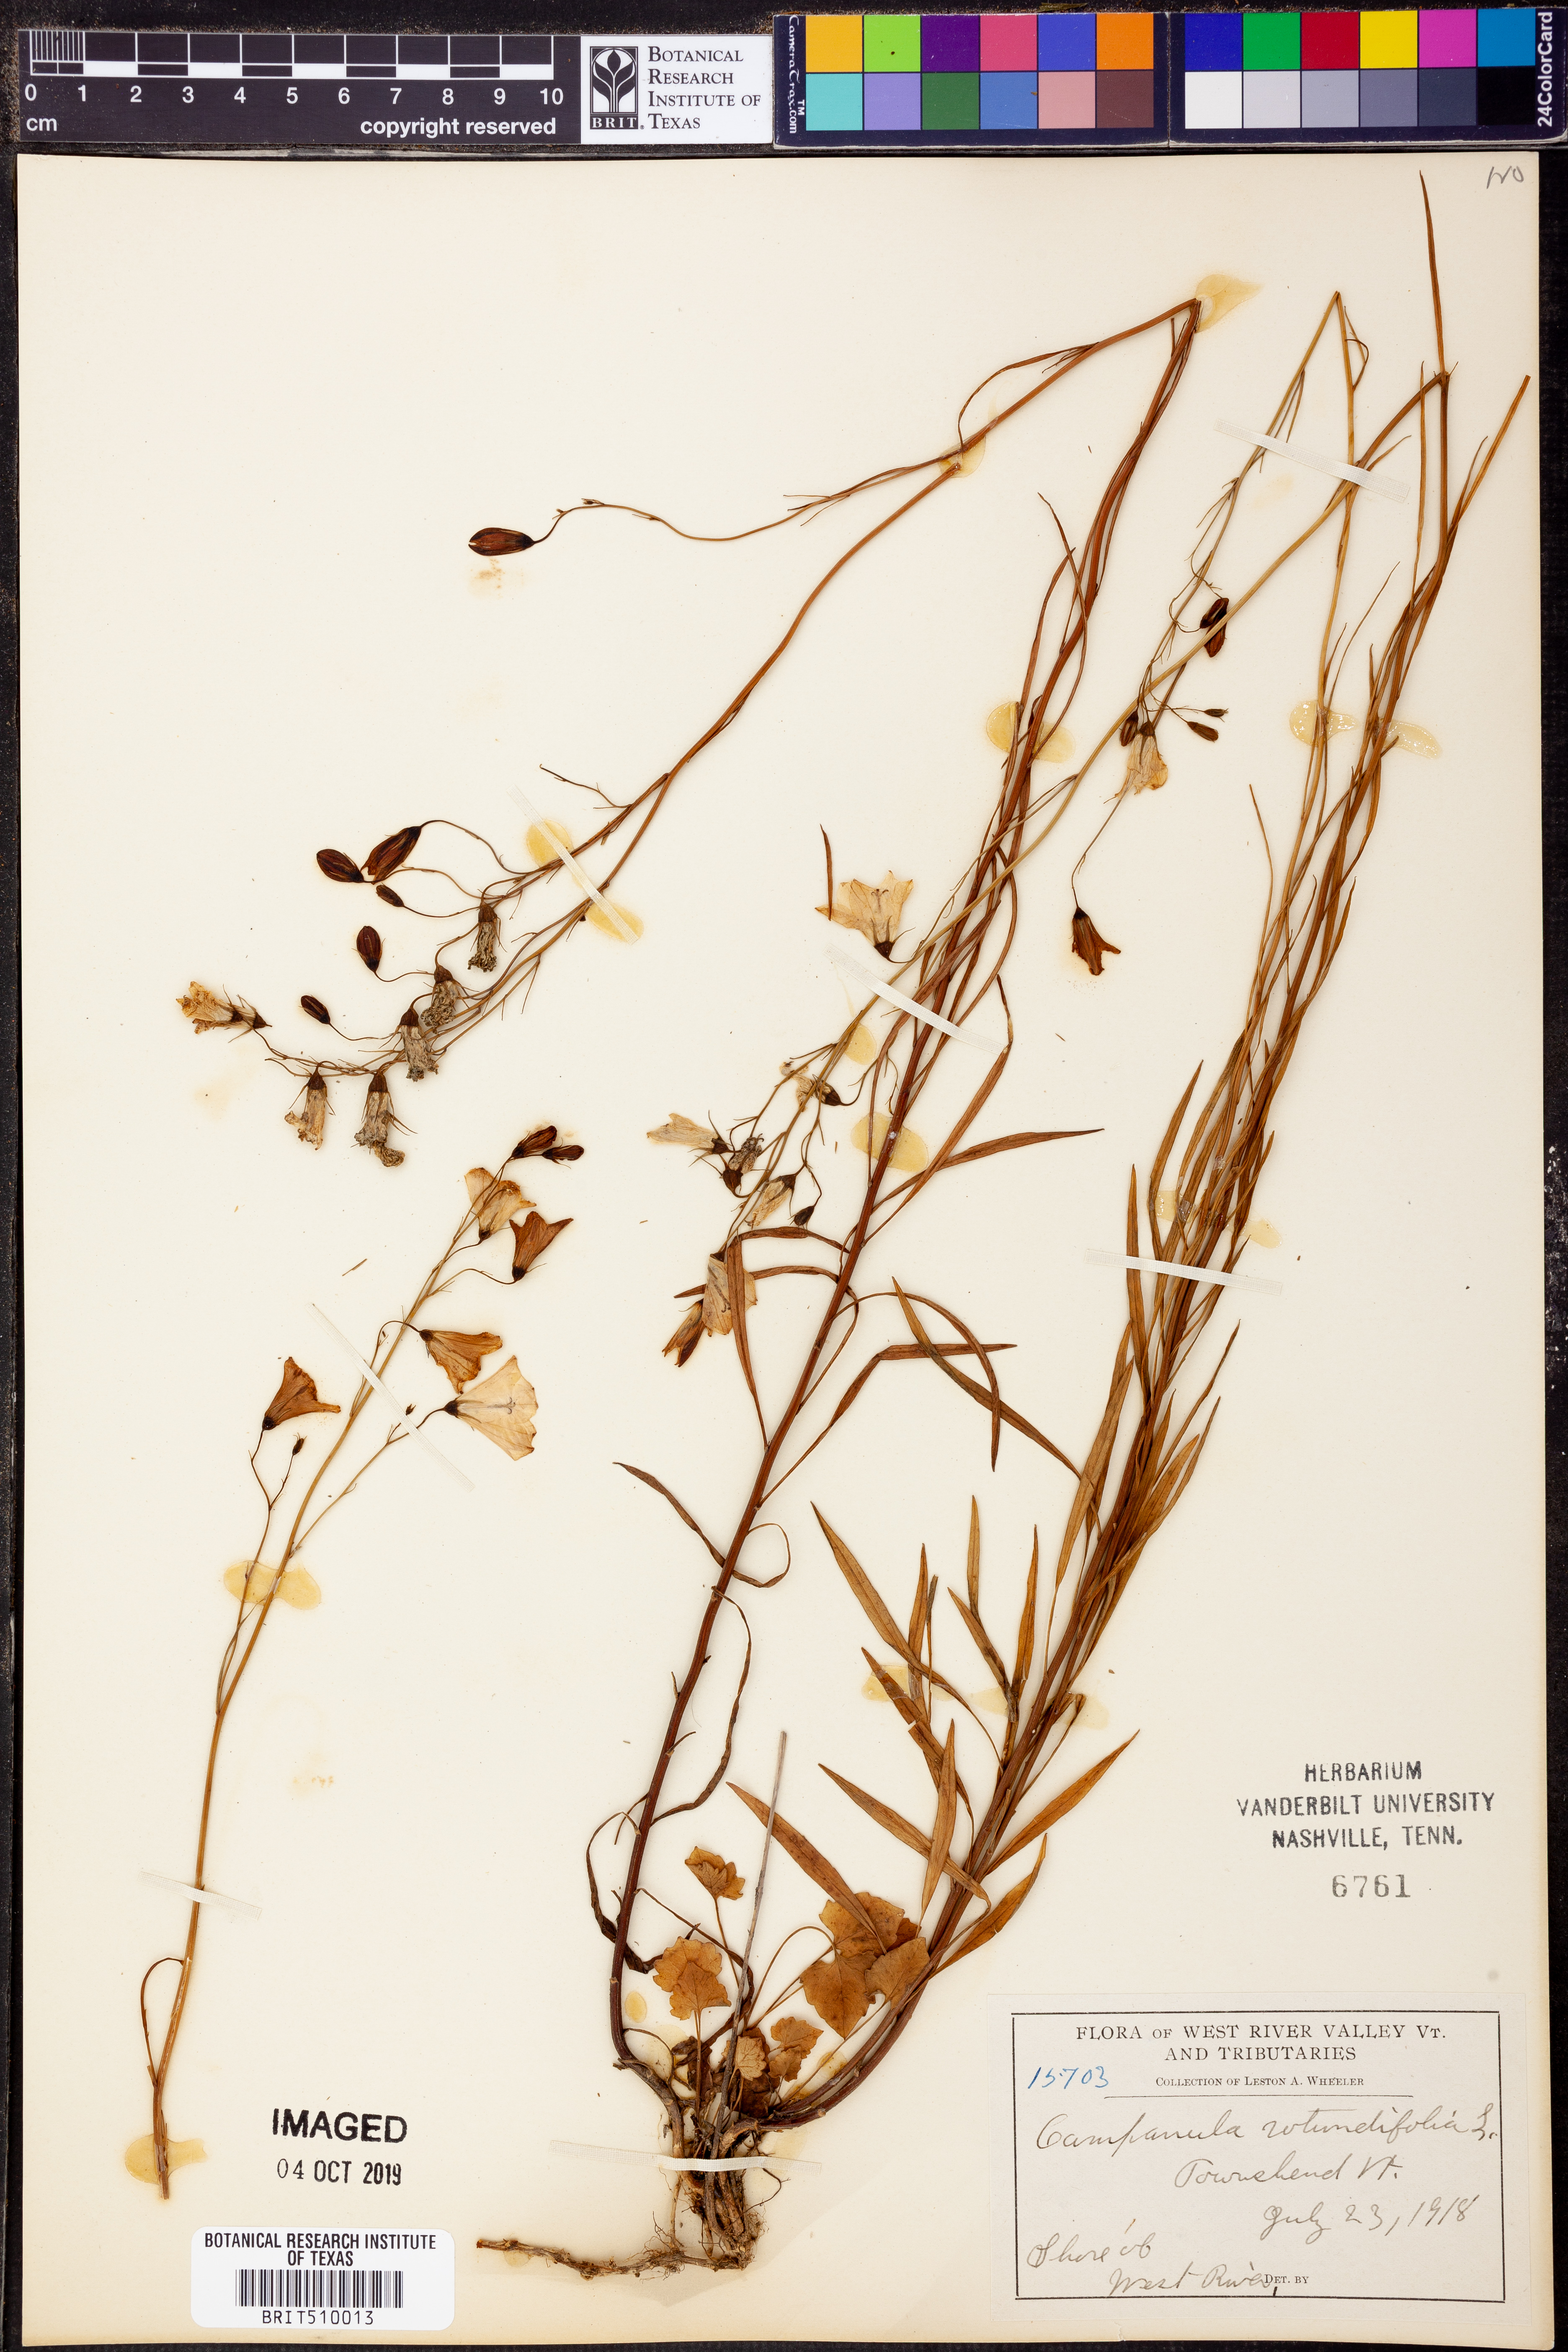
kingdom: Plantae
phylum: Tracheophyta
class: Magnoliopsida
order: Asterales
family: Campanulaceae
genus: Campanula
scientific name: Campanula rotundifolia
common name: Harebell
